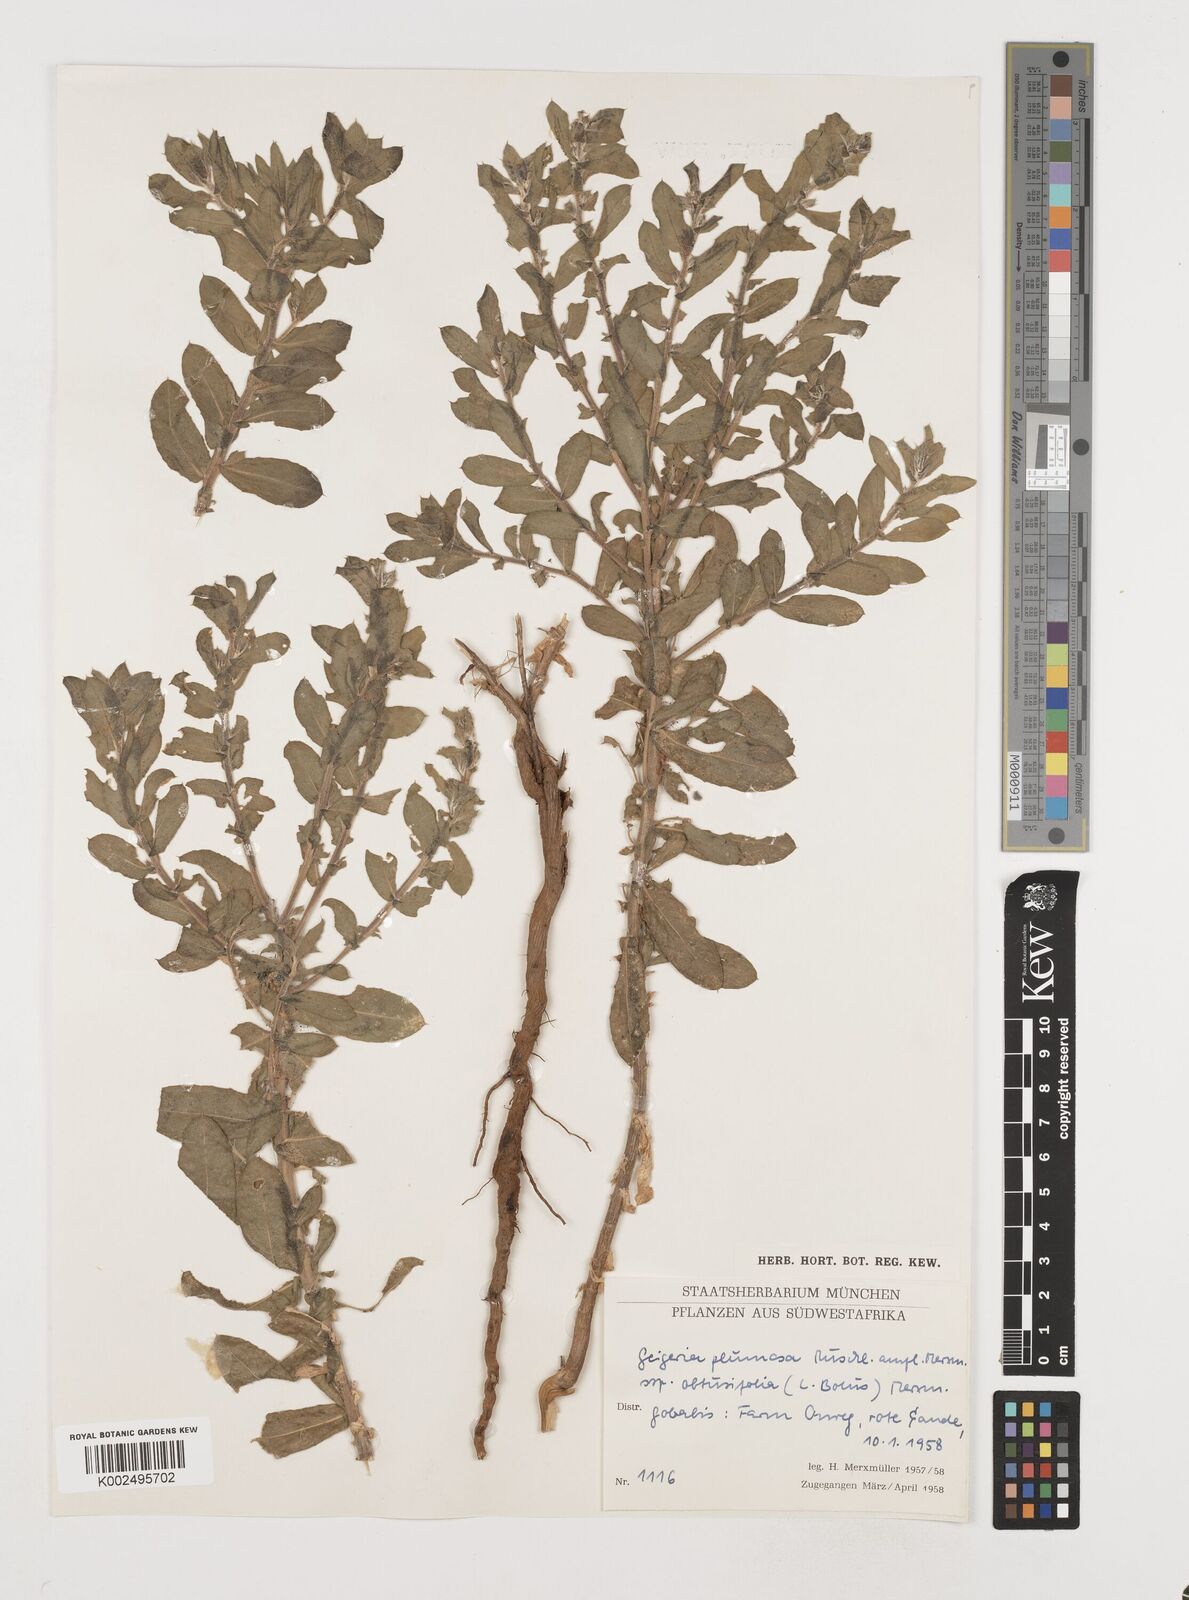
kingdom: Plantae
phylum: Tracheophyta
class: Magnoliopsida
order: Asterales
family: Asteraceae
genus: Geigeria
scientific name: Geigeria plumosa
